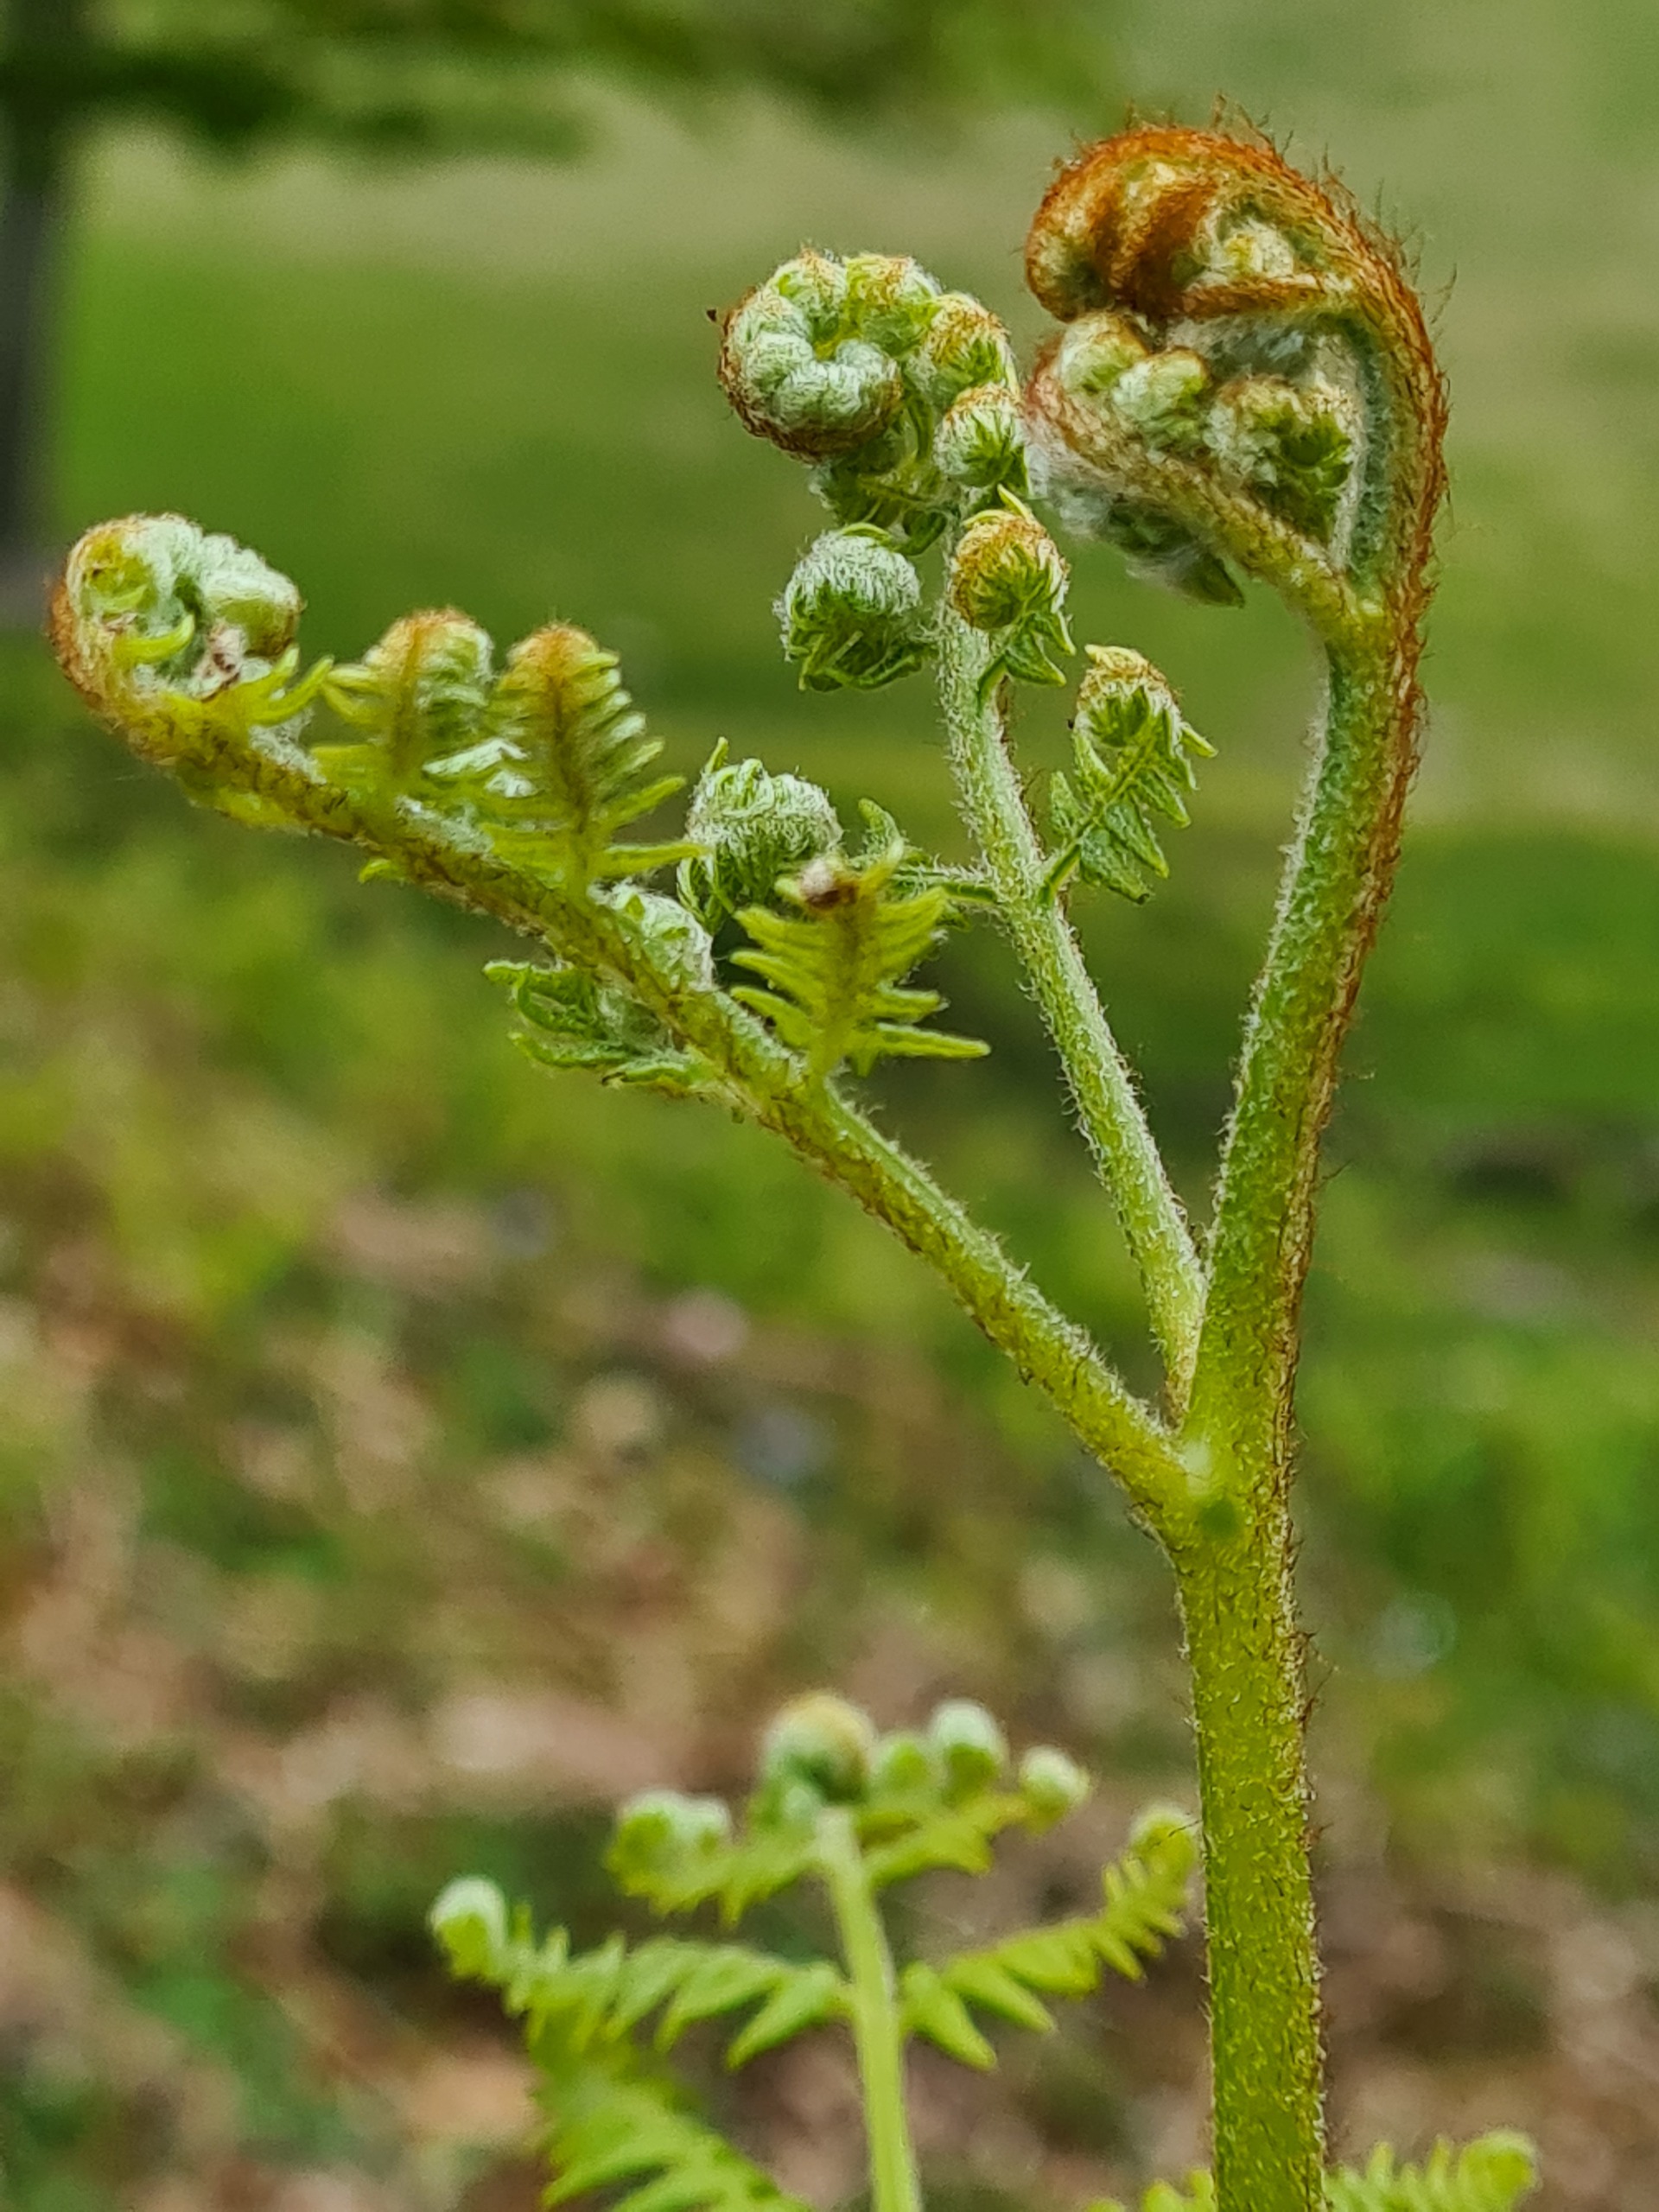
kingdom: Plantae
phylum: Tracheophyta
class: Polypodiopsida
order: Polypodiales
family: Dennstaedtiaceae
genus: Pteridium
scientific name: Pteridium aquilinum
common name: Ørnebregne
